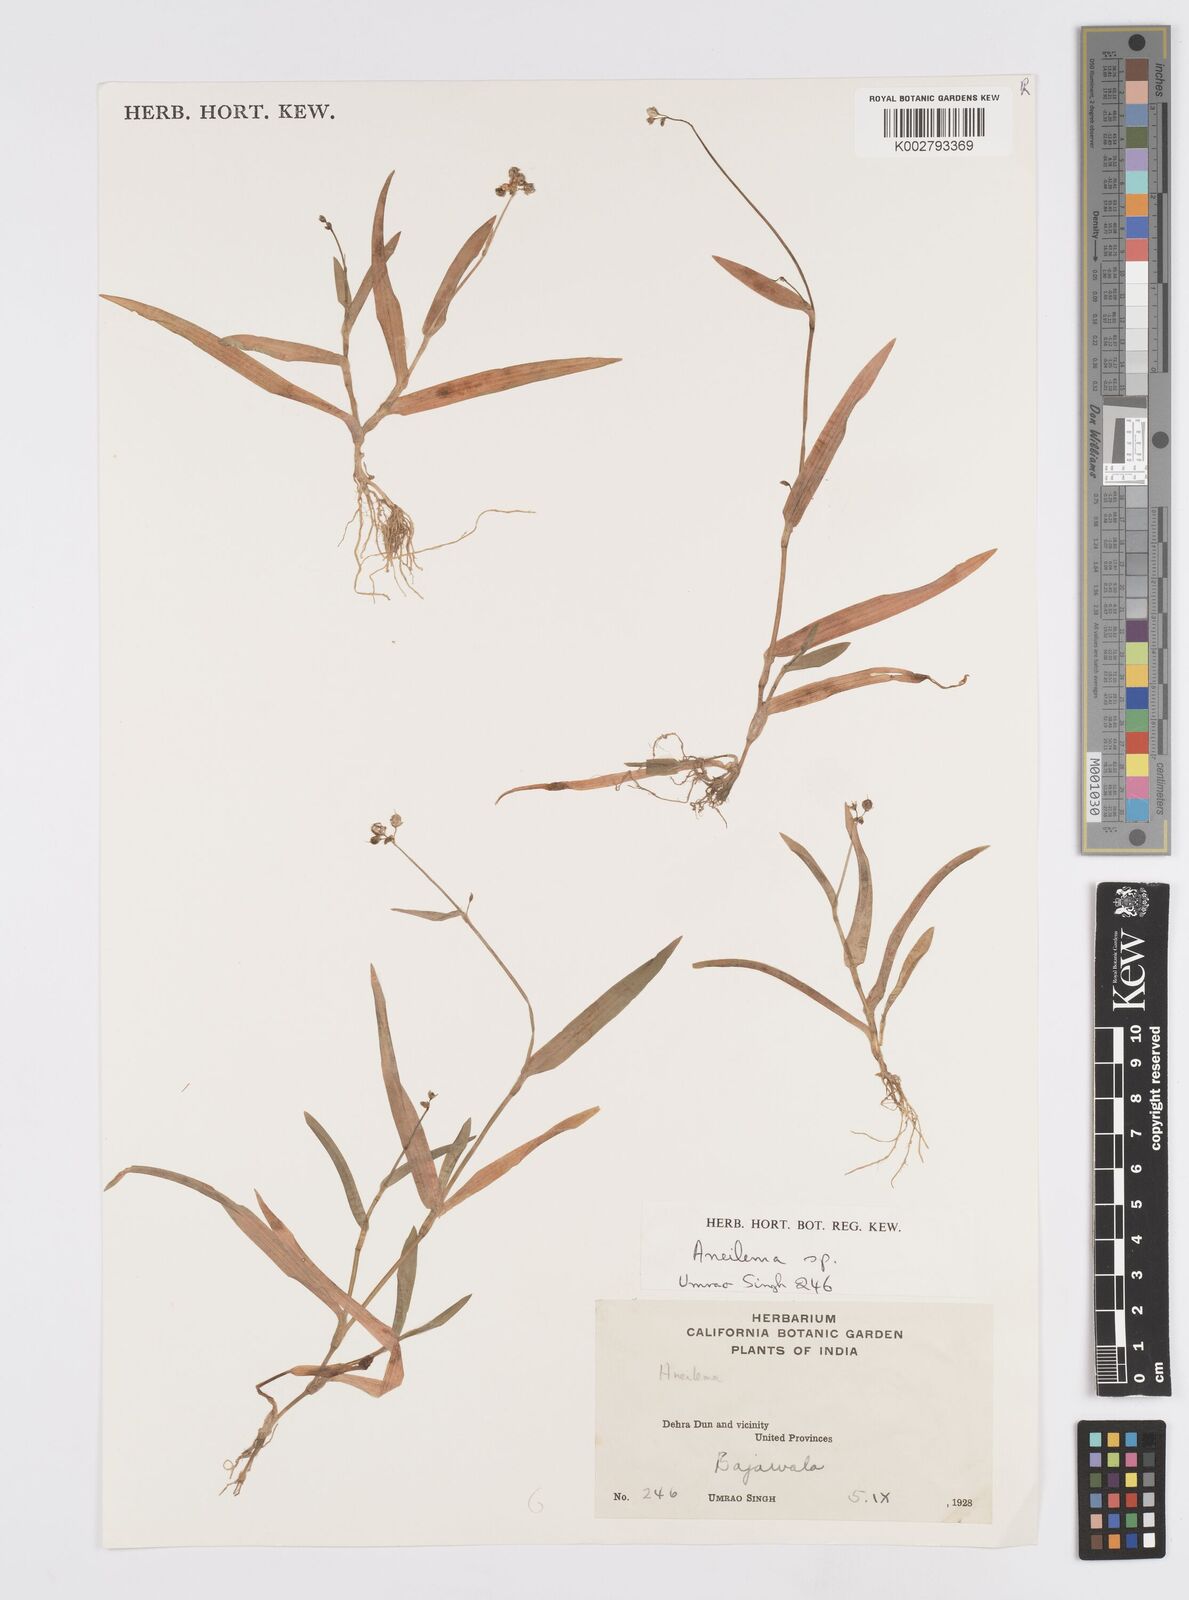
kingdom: Plantae
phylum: Tracheophyta
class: Liliopsida
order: Commelinales
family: Commelinaceae
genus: Murdannia
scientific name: Murdannia
